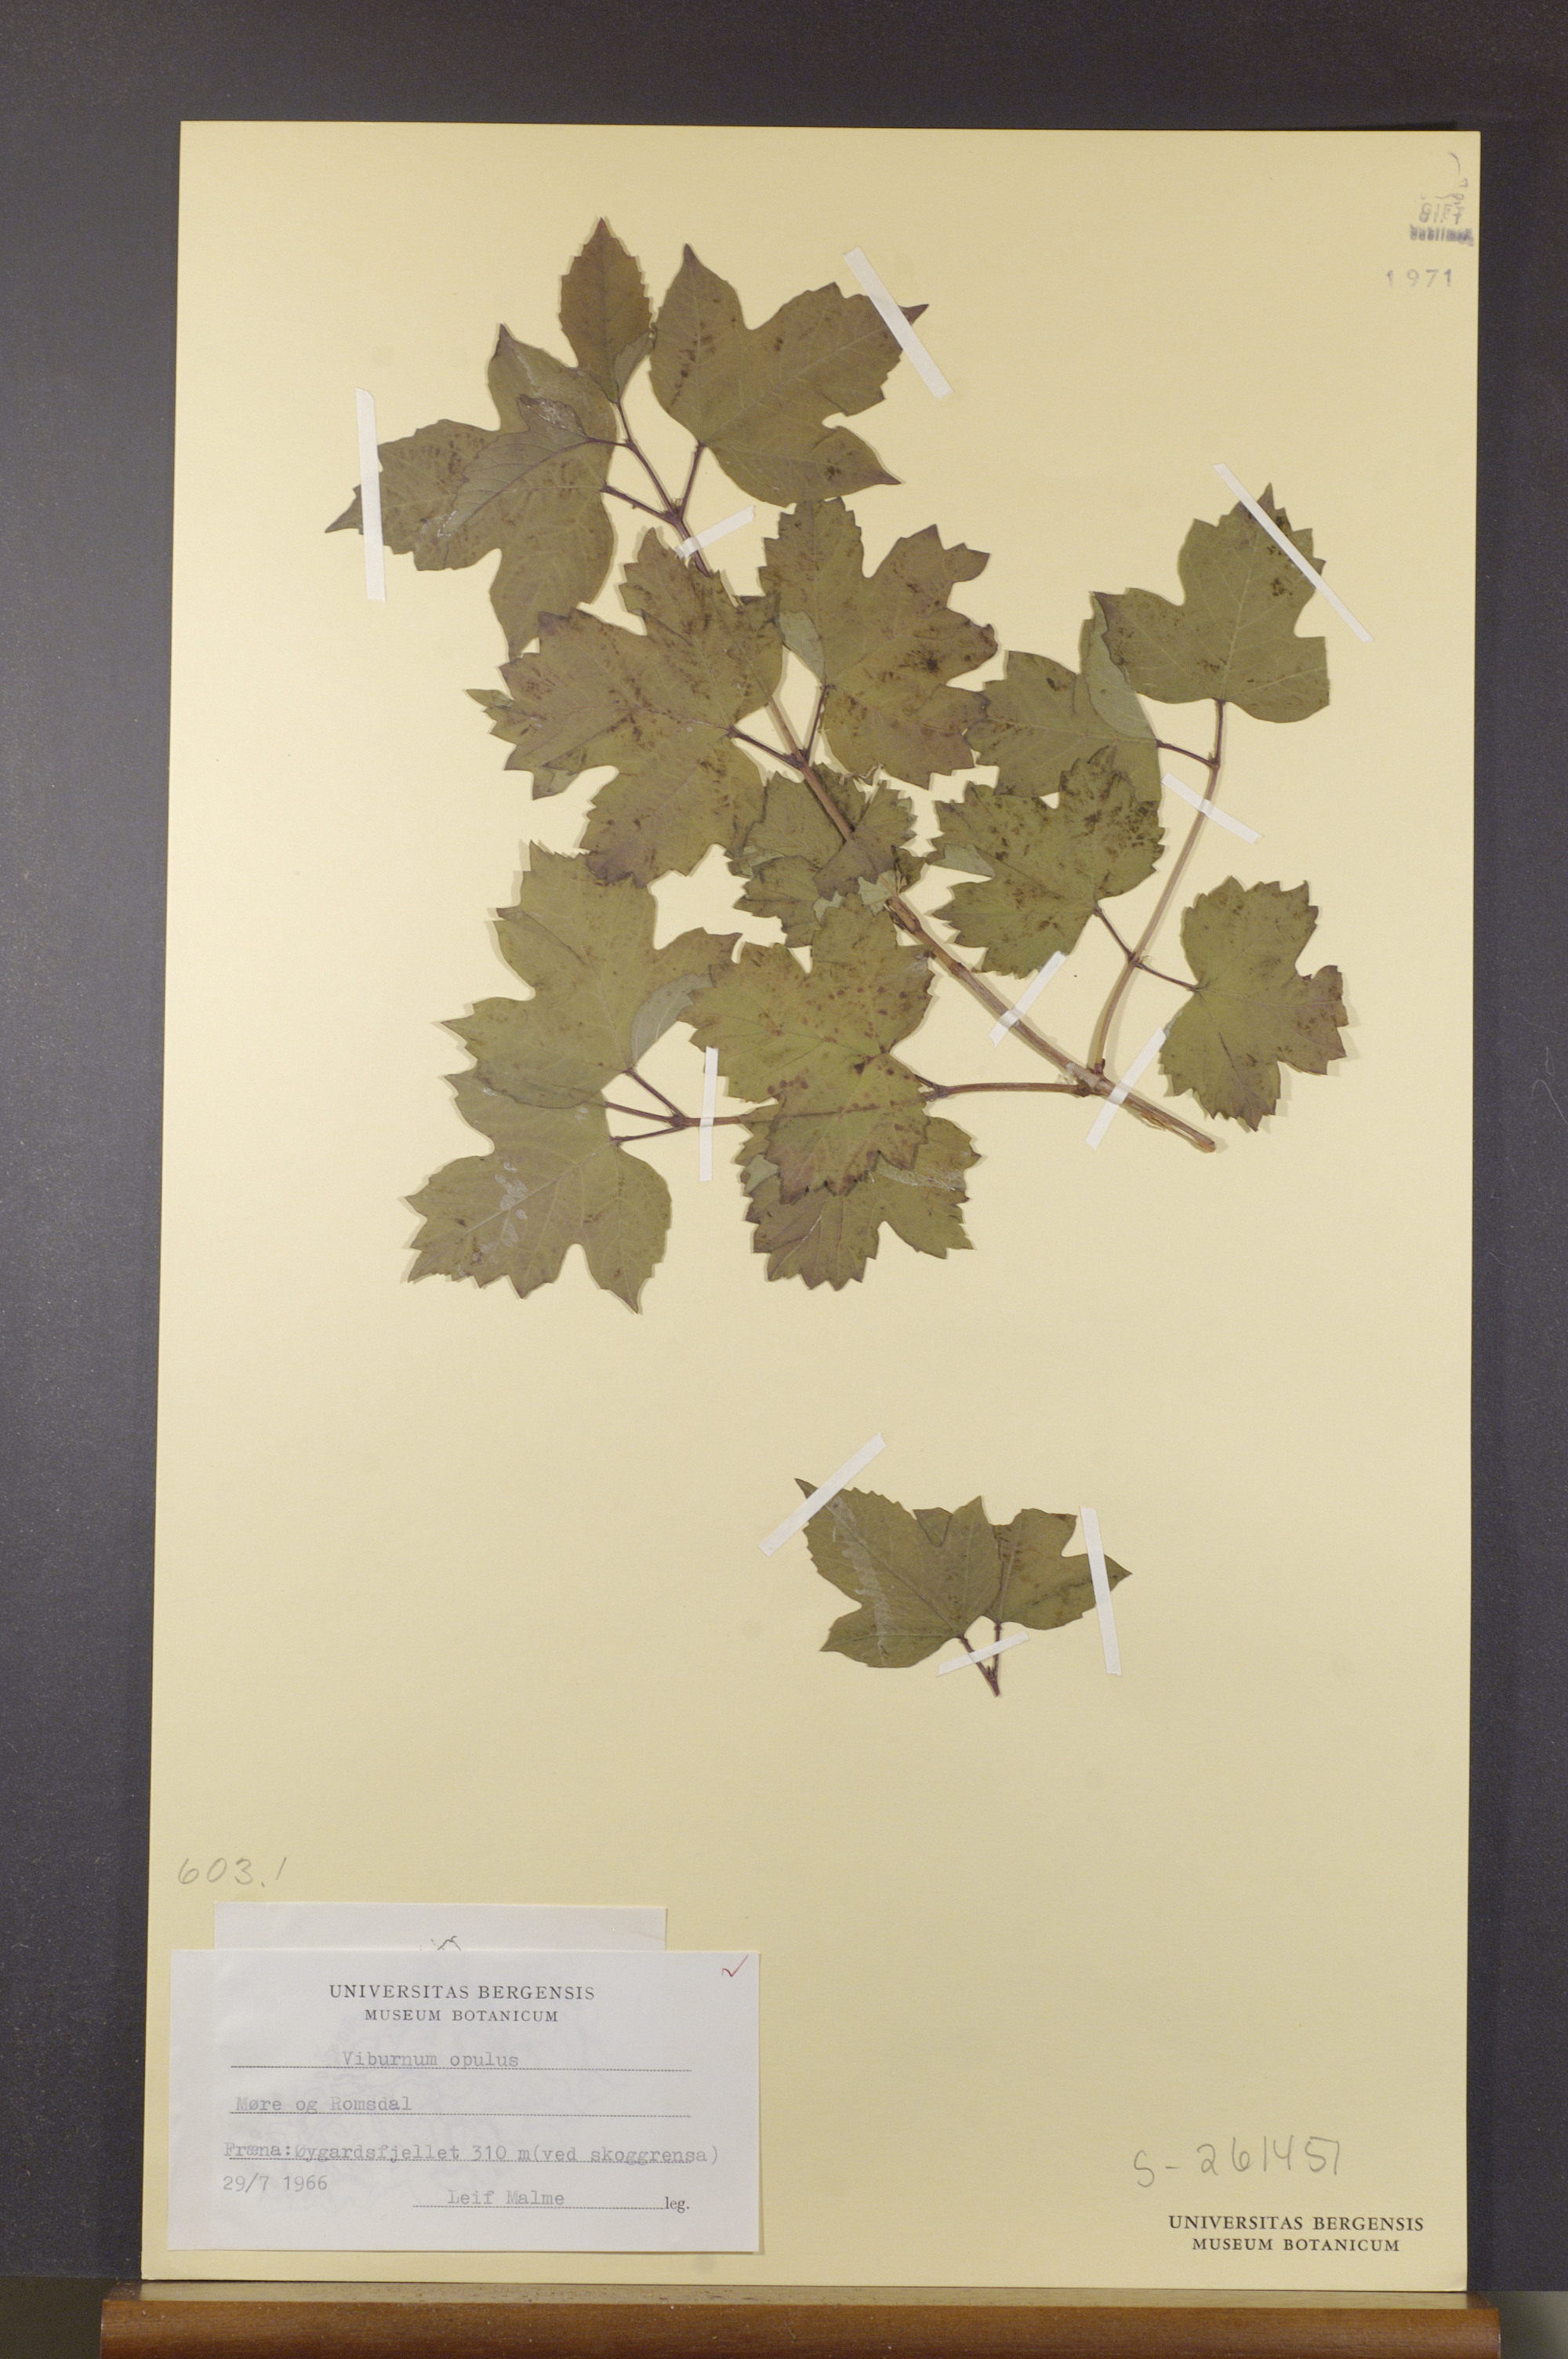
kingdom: Plantae
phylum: Tracheophyta
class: Magnoliopsida
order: Dipsacales
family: Viburnaceae
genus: Viburnum
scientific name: Viburnum opulus
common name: Guelder-rose
